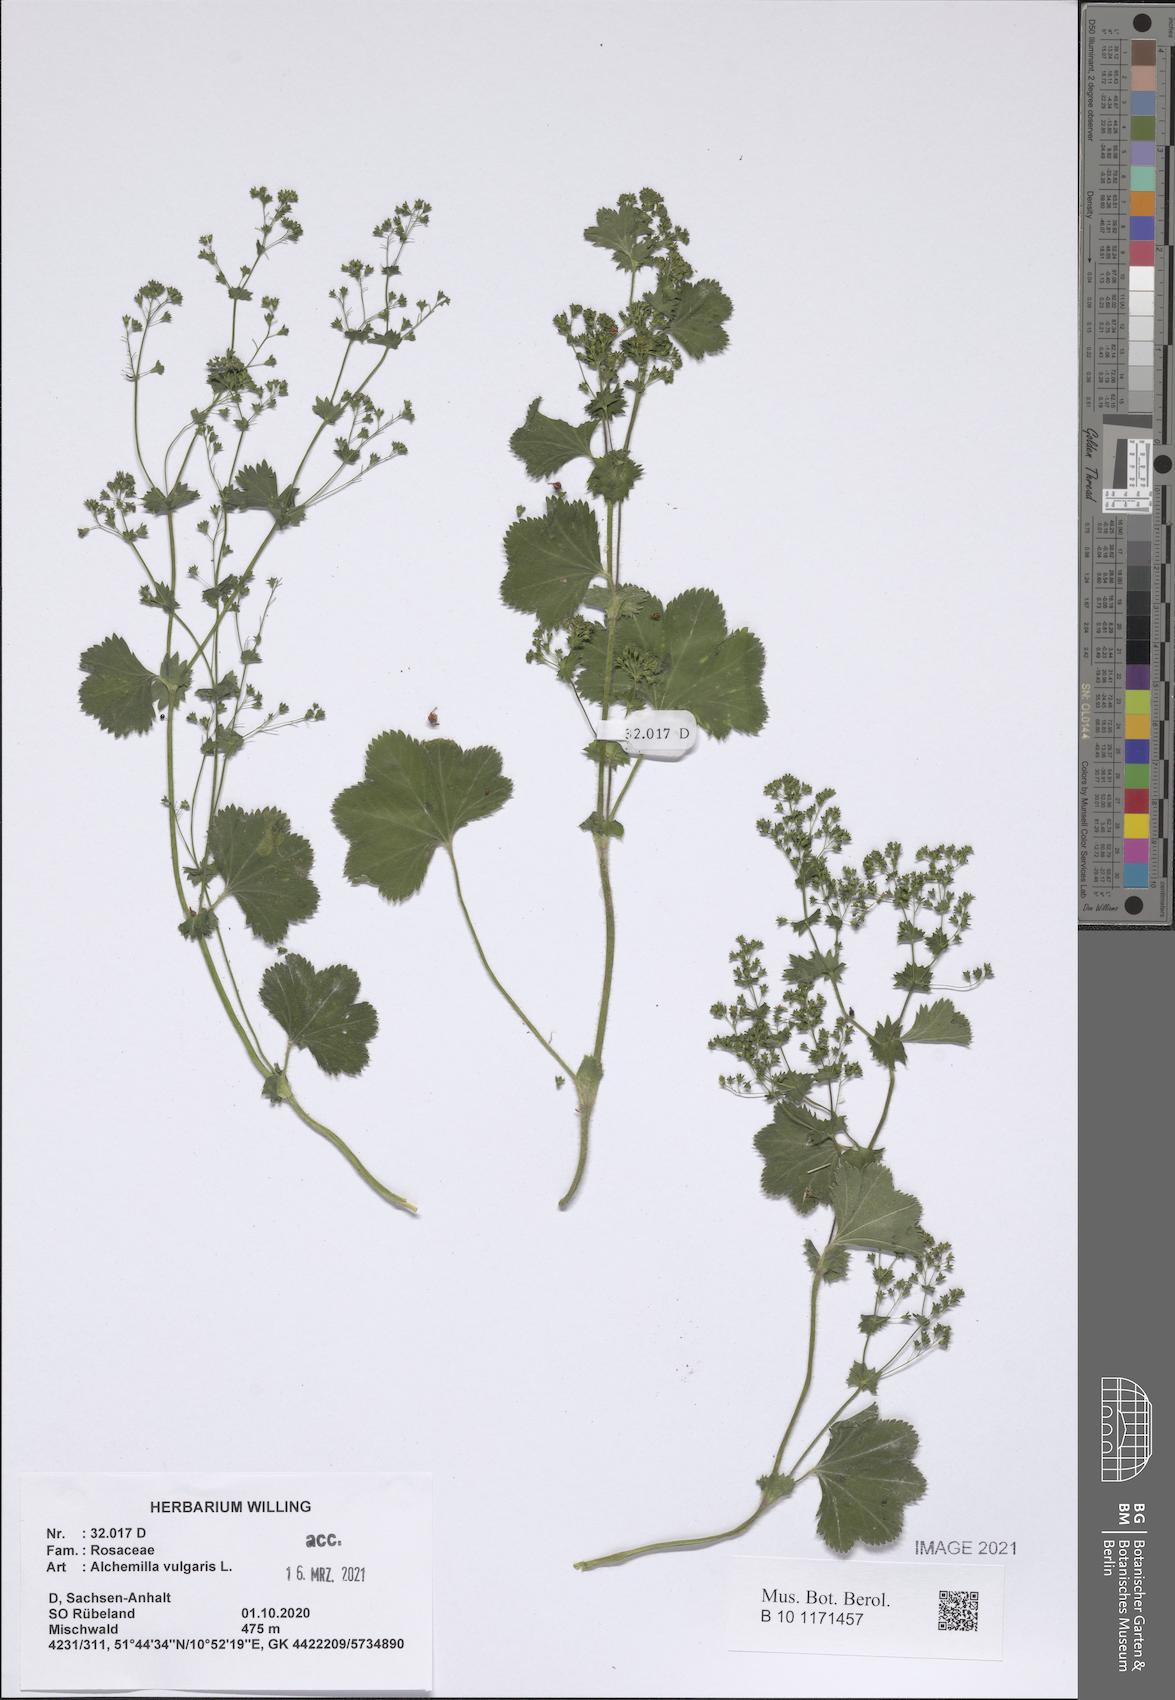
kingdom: Plantae
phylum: Tracheophyta
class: Magnoliopsida
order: Rosales
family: Rosaceae
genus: Alchemilla
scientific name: Alchemilla vulgaris
